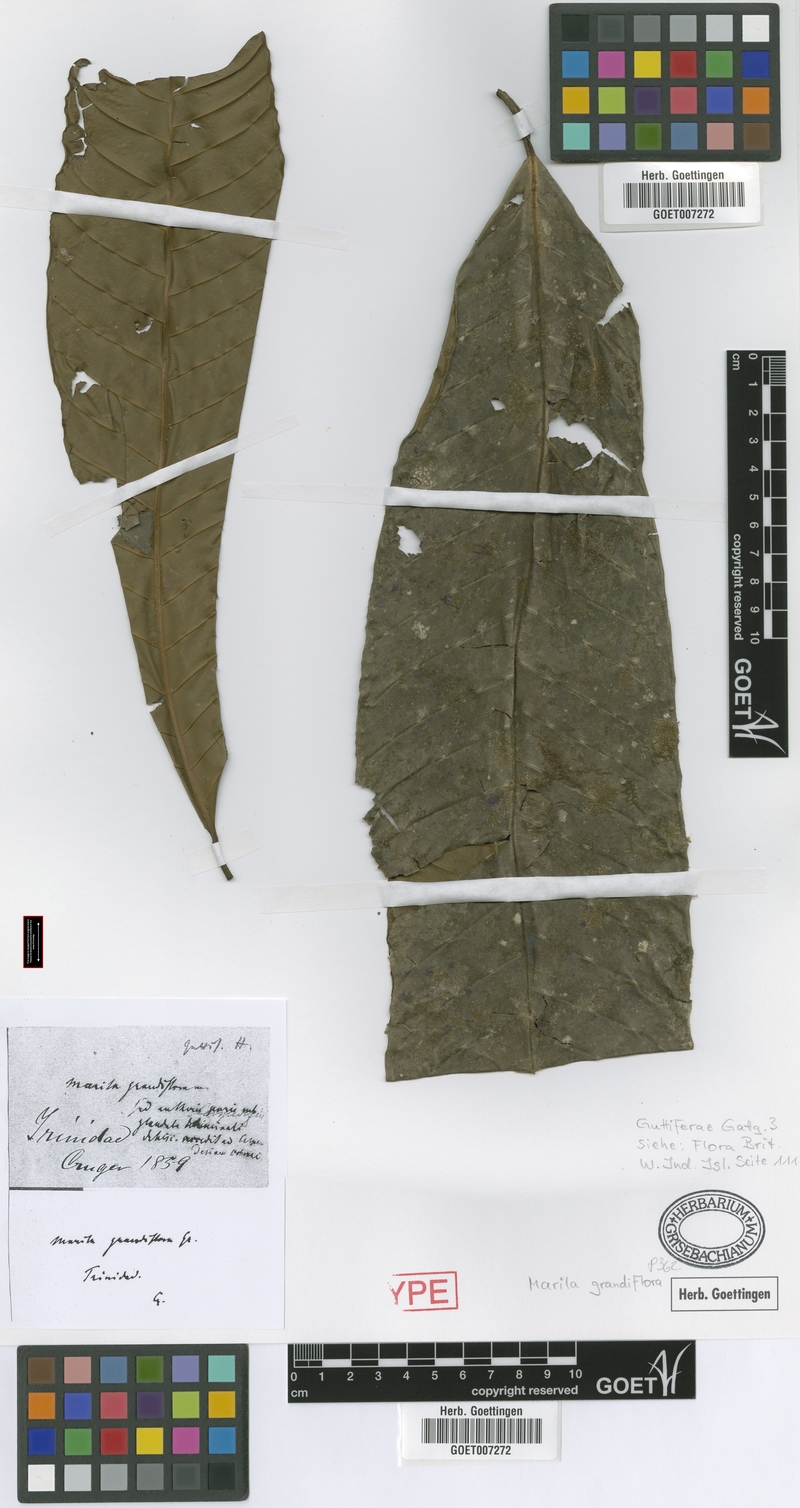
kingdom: Plantae
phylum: Tracheophyta
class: Magnoliopsida
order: Malpighiales
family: Calophyllaceae
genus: Marila
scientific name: Marila grandiflora
